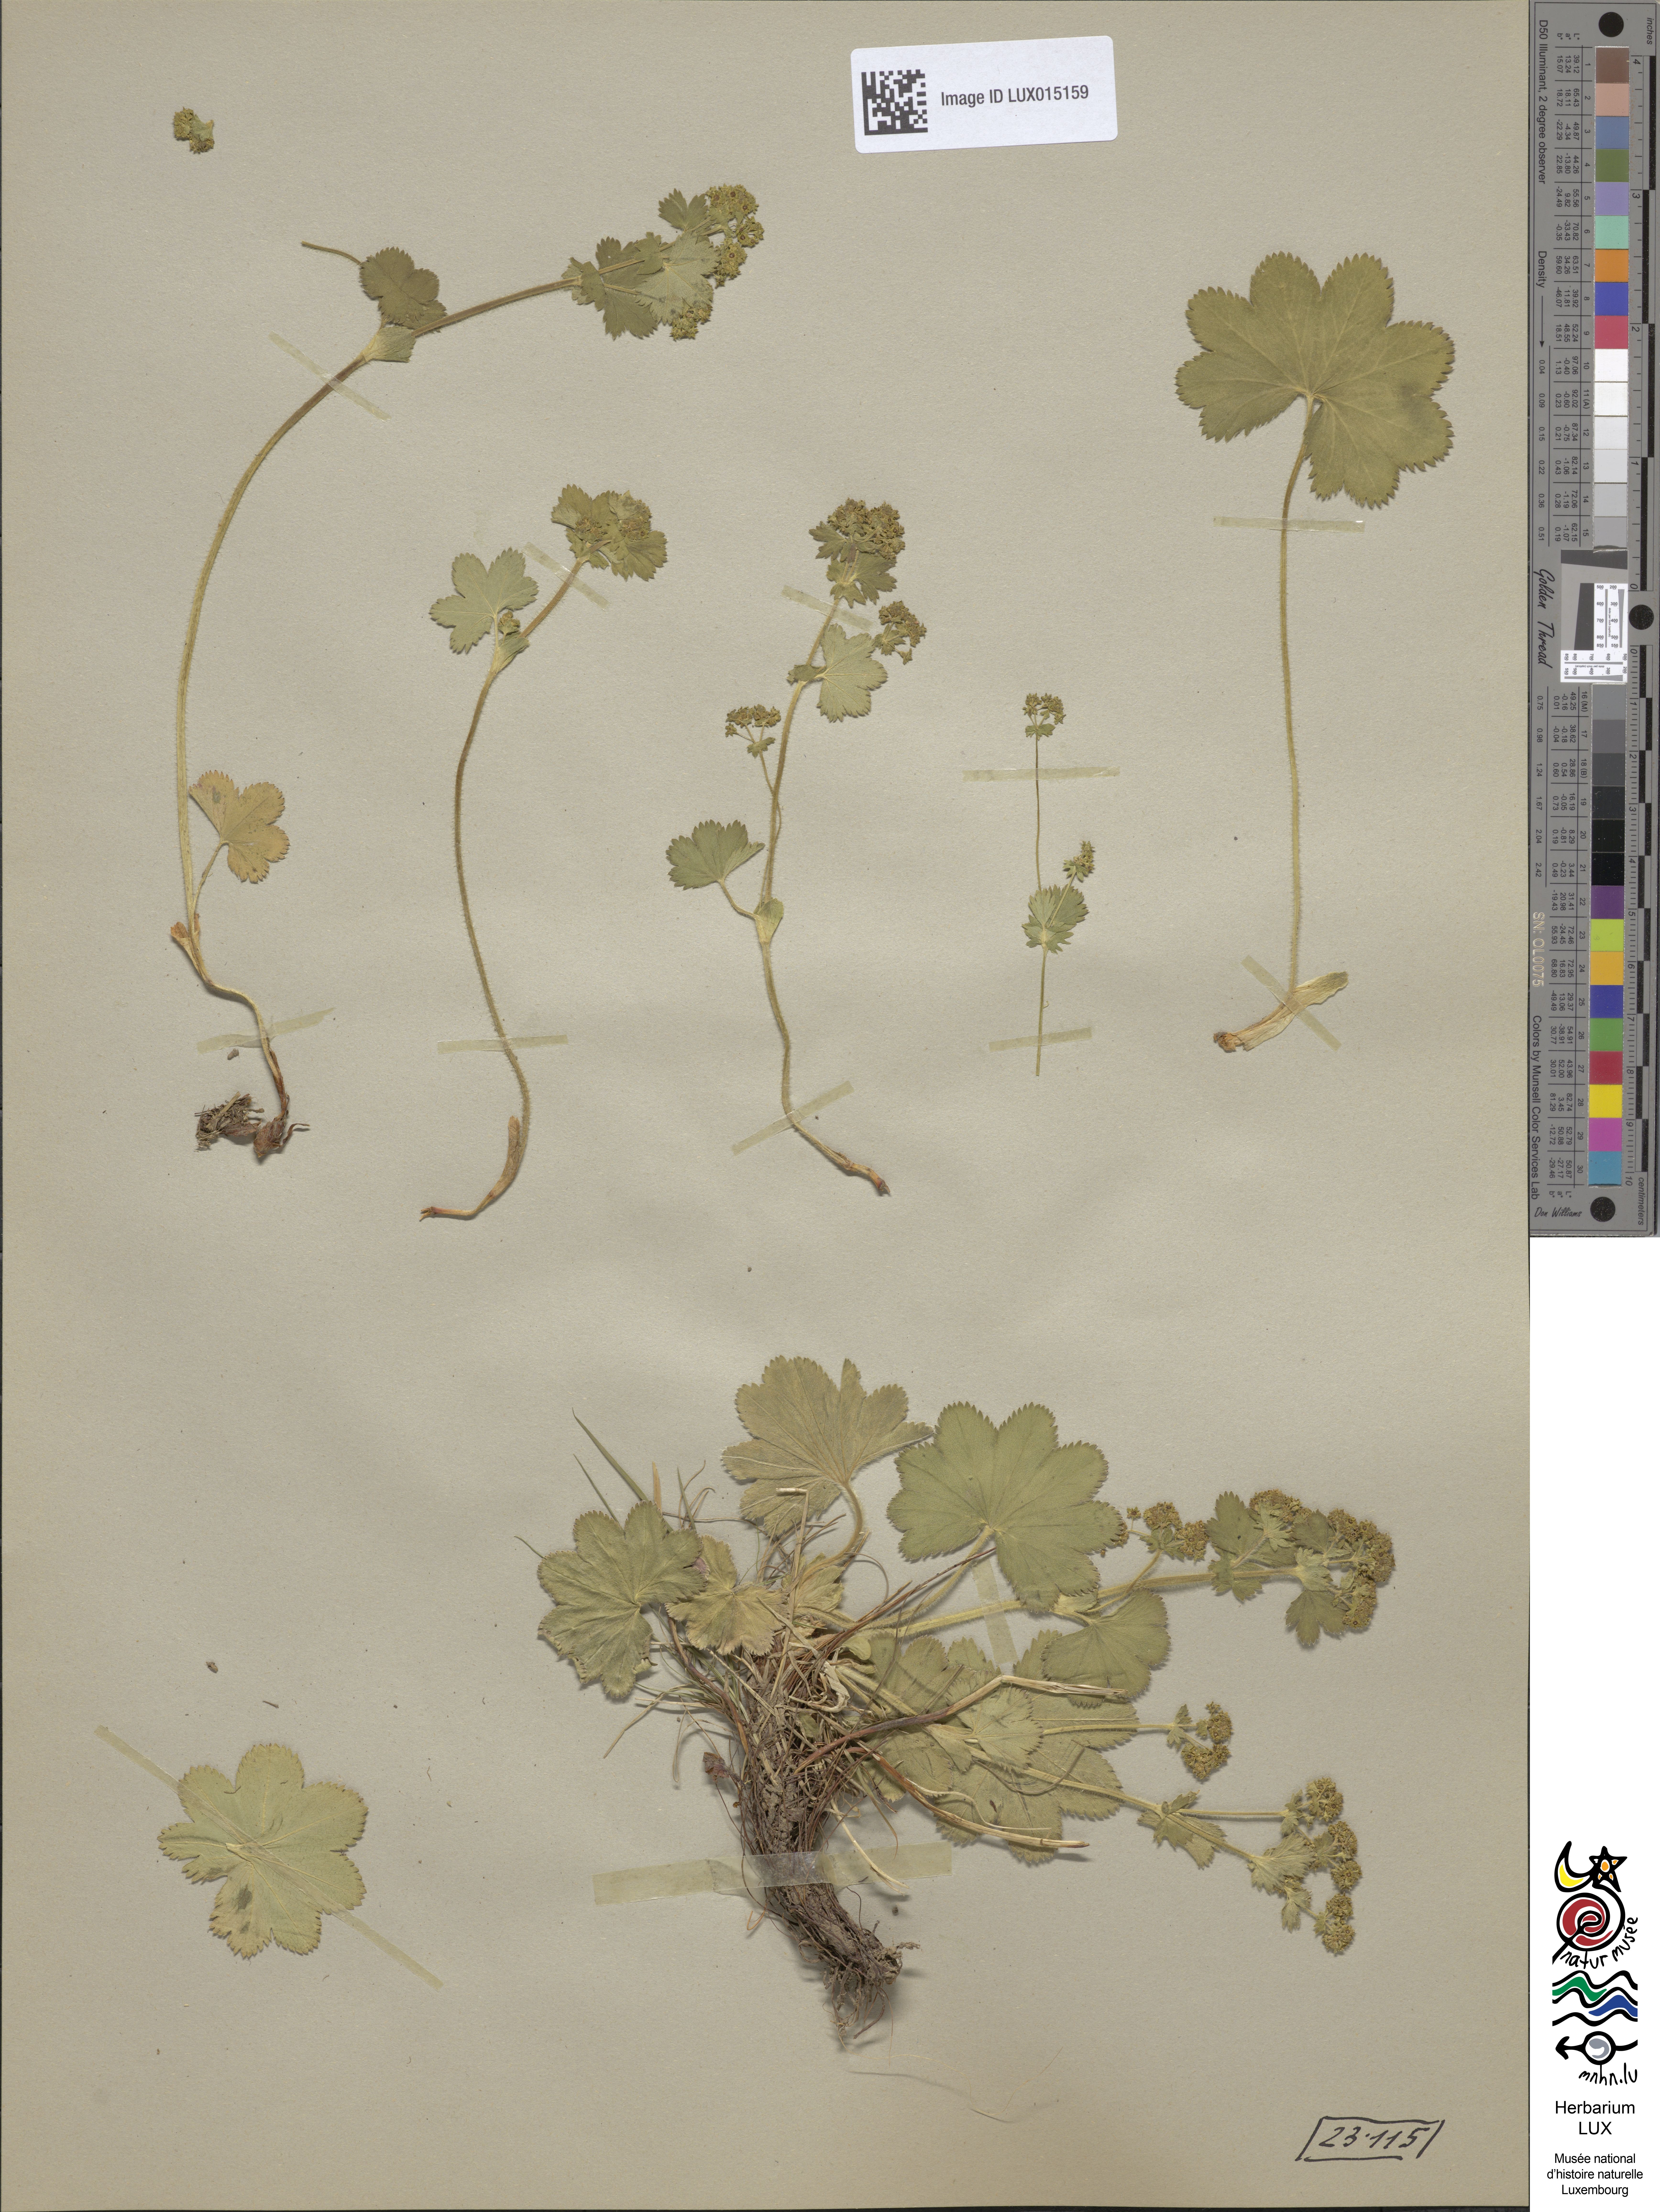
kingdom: Plantae
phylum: Tracheophyta
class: Magnoliopsida
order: Rosales
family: Rosaceae
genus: Alchemilla
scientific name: Alchemilla monticola
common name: Hairy lady's mantle
